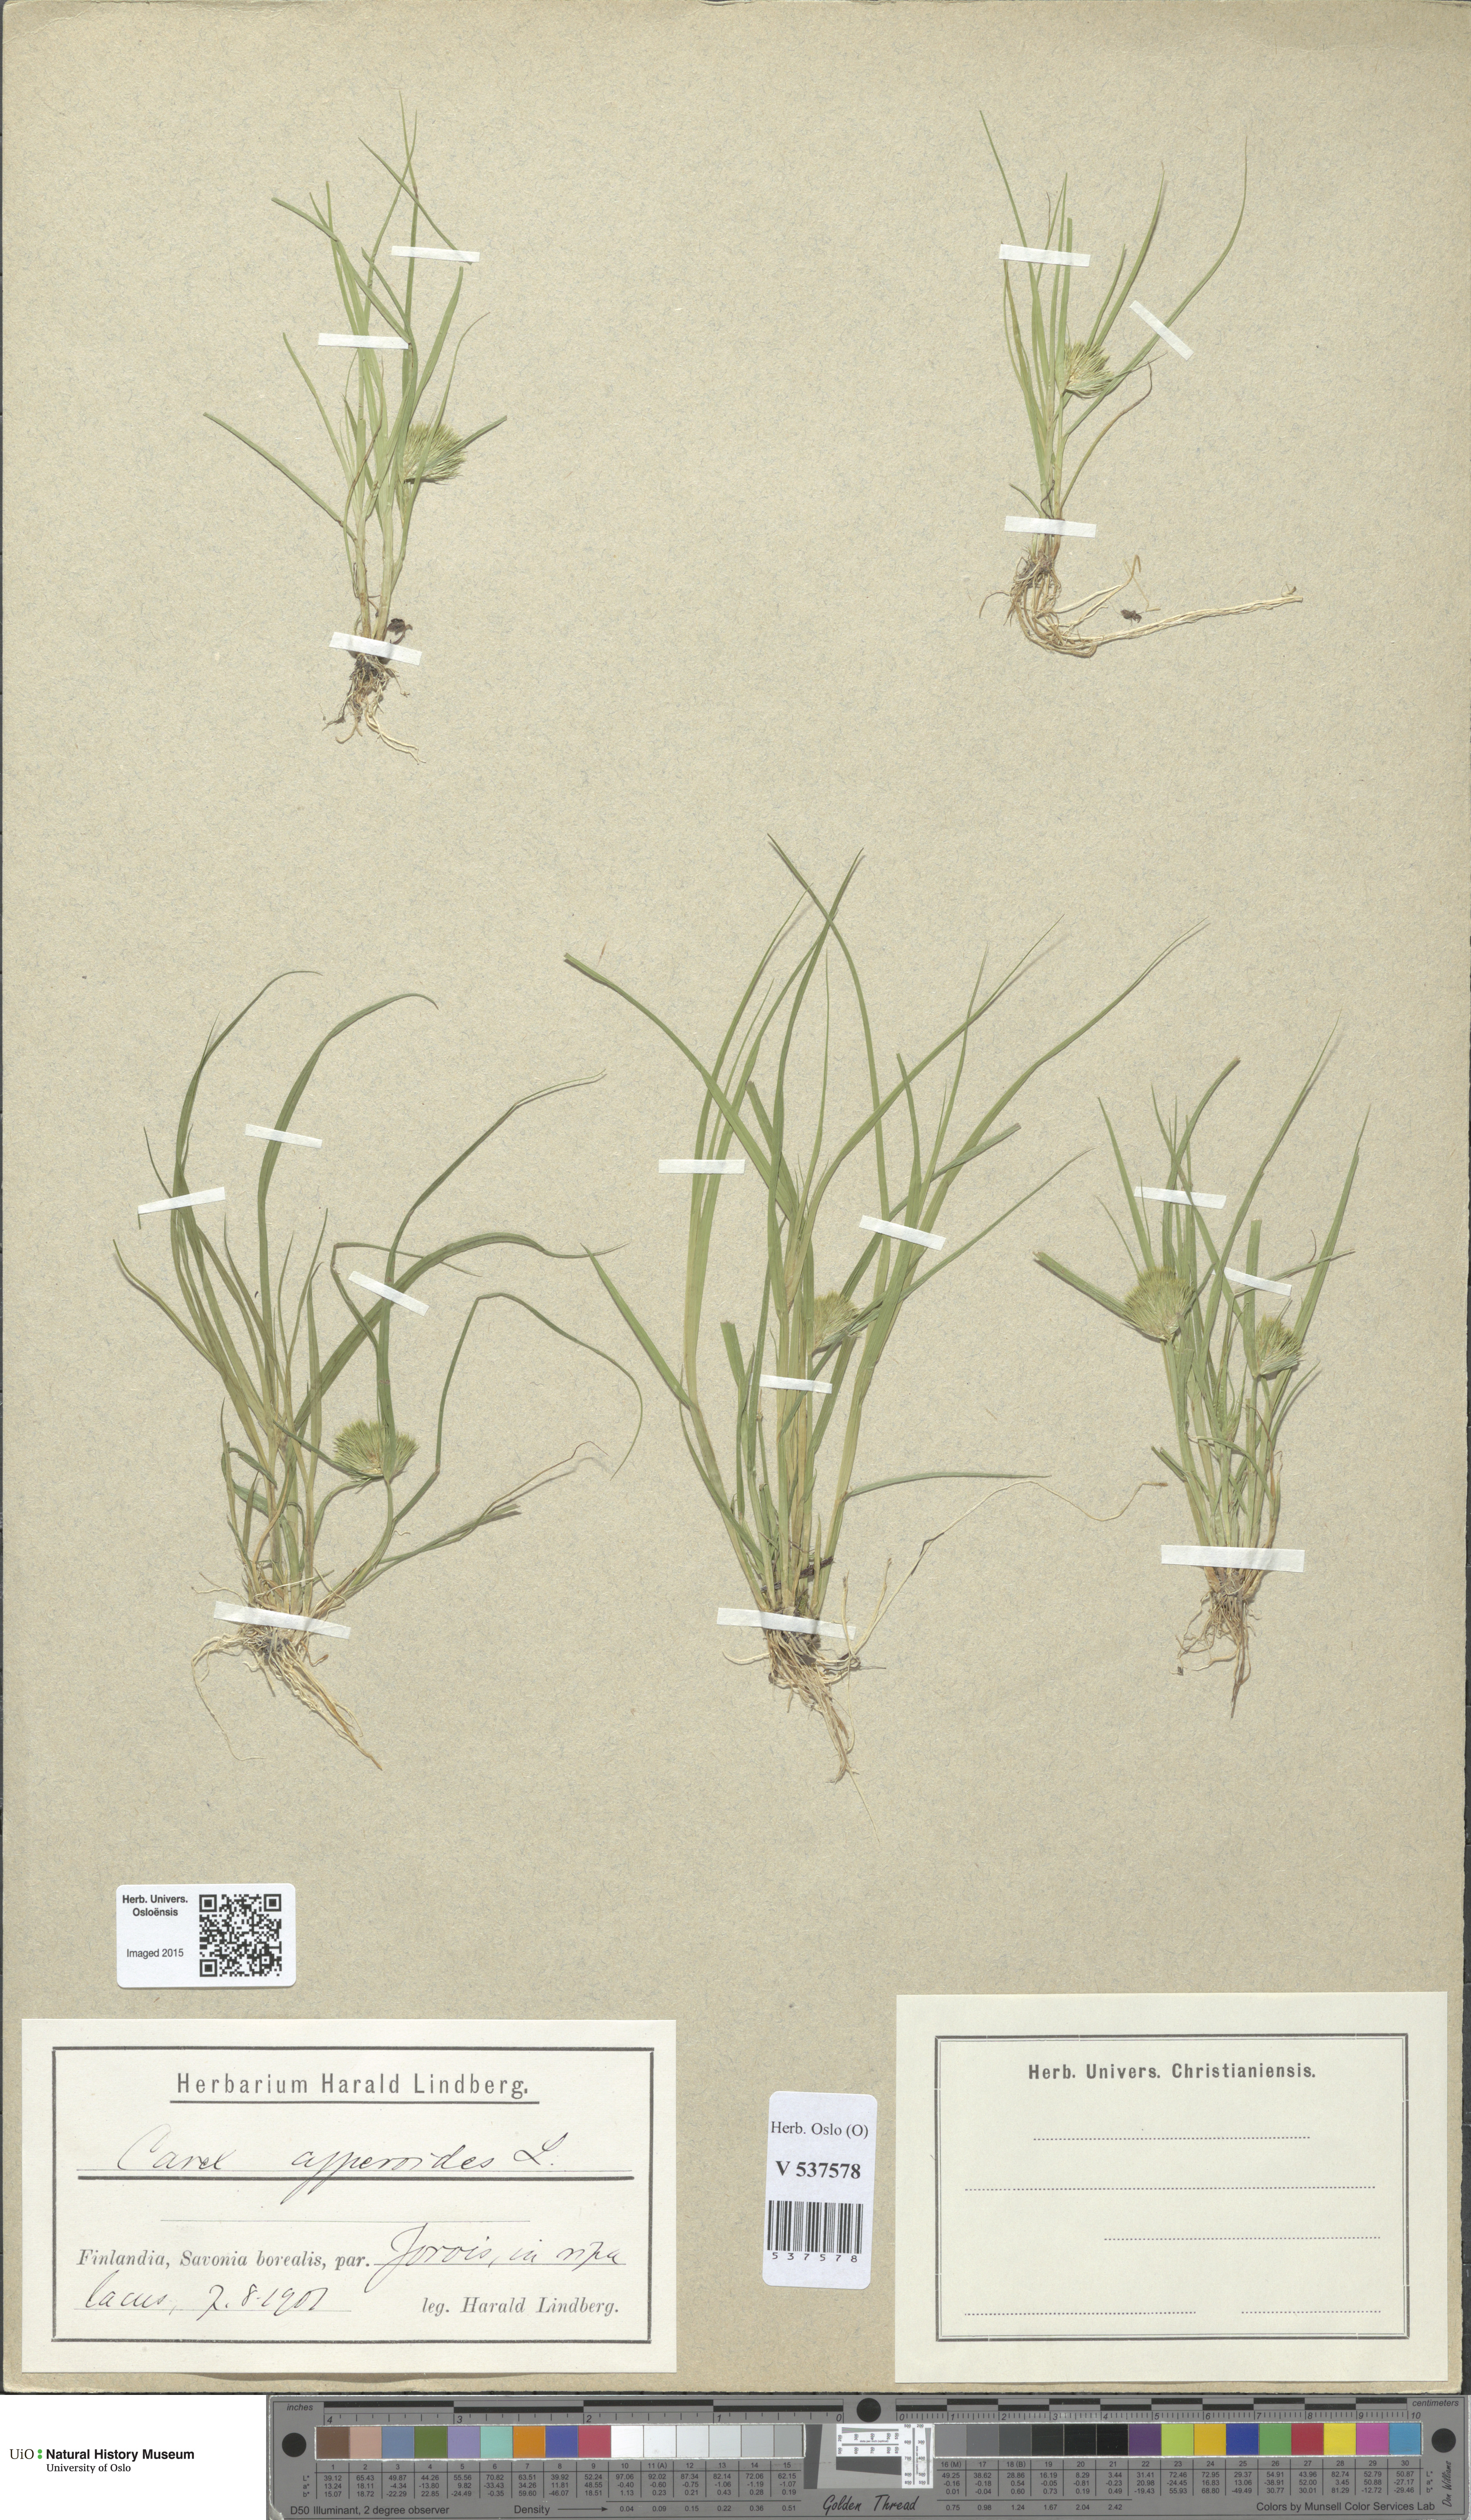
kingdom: Plantae
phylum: Tracheophyta
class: Liliopsida
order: Poales
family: Cyperaceae
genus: Carex
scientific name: Carex bohemica
